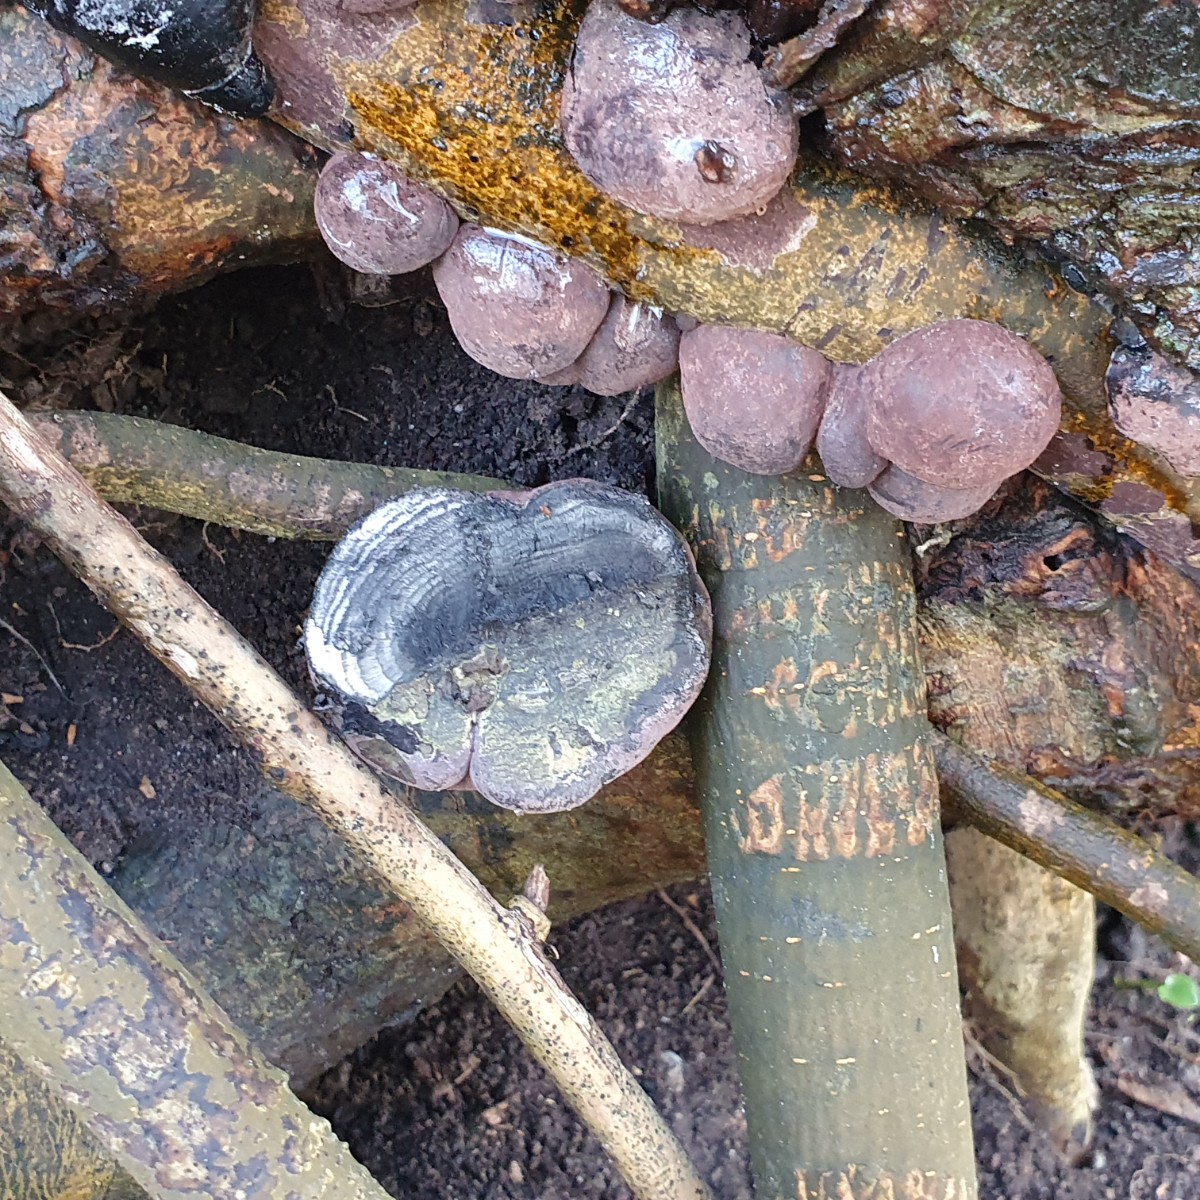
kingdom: Fungi
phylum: Ascomycota
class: Sordariomycetes
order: Xylariales
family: Hypoxylaceae
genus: Daldinia
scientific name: Daldinia concentrica
